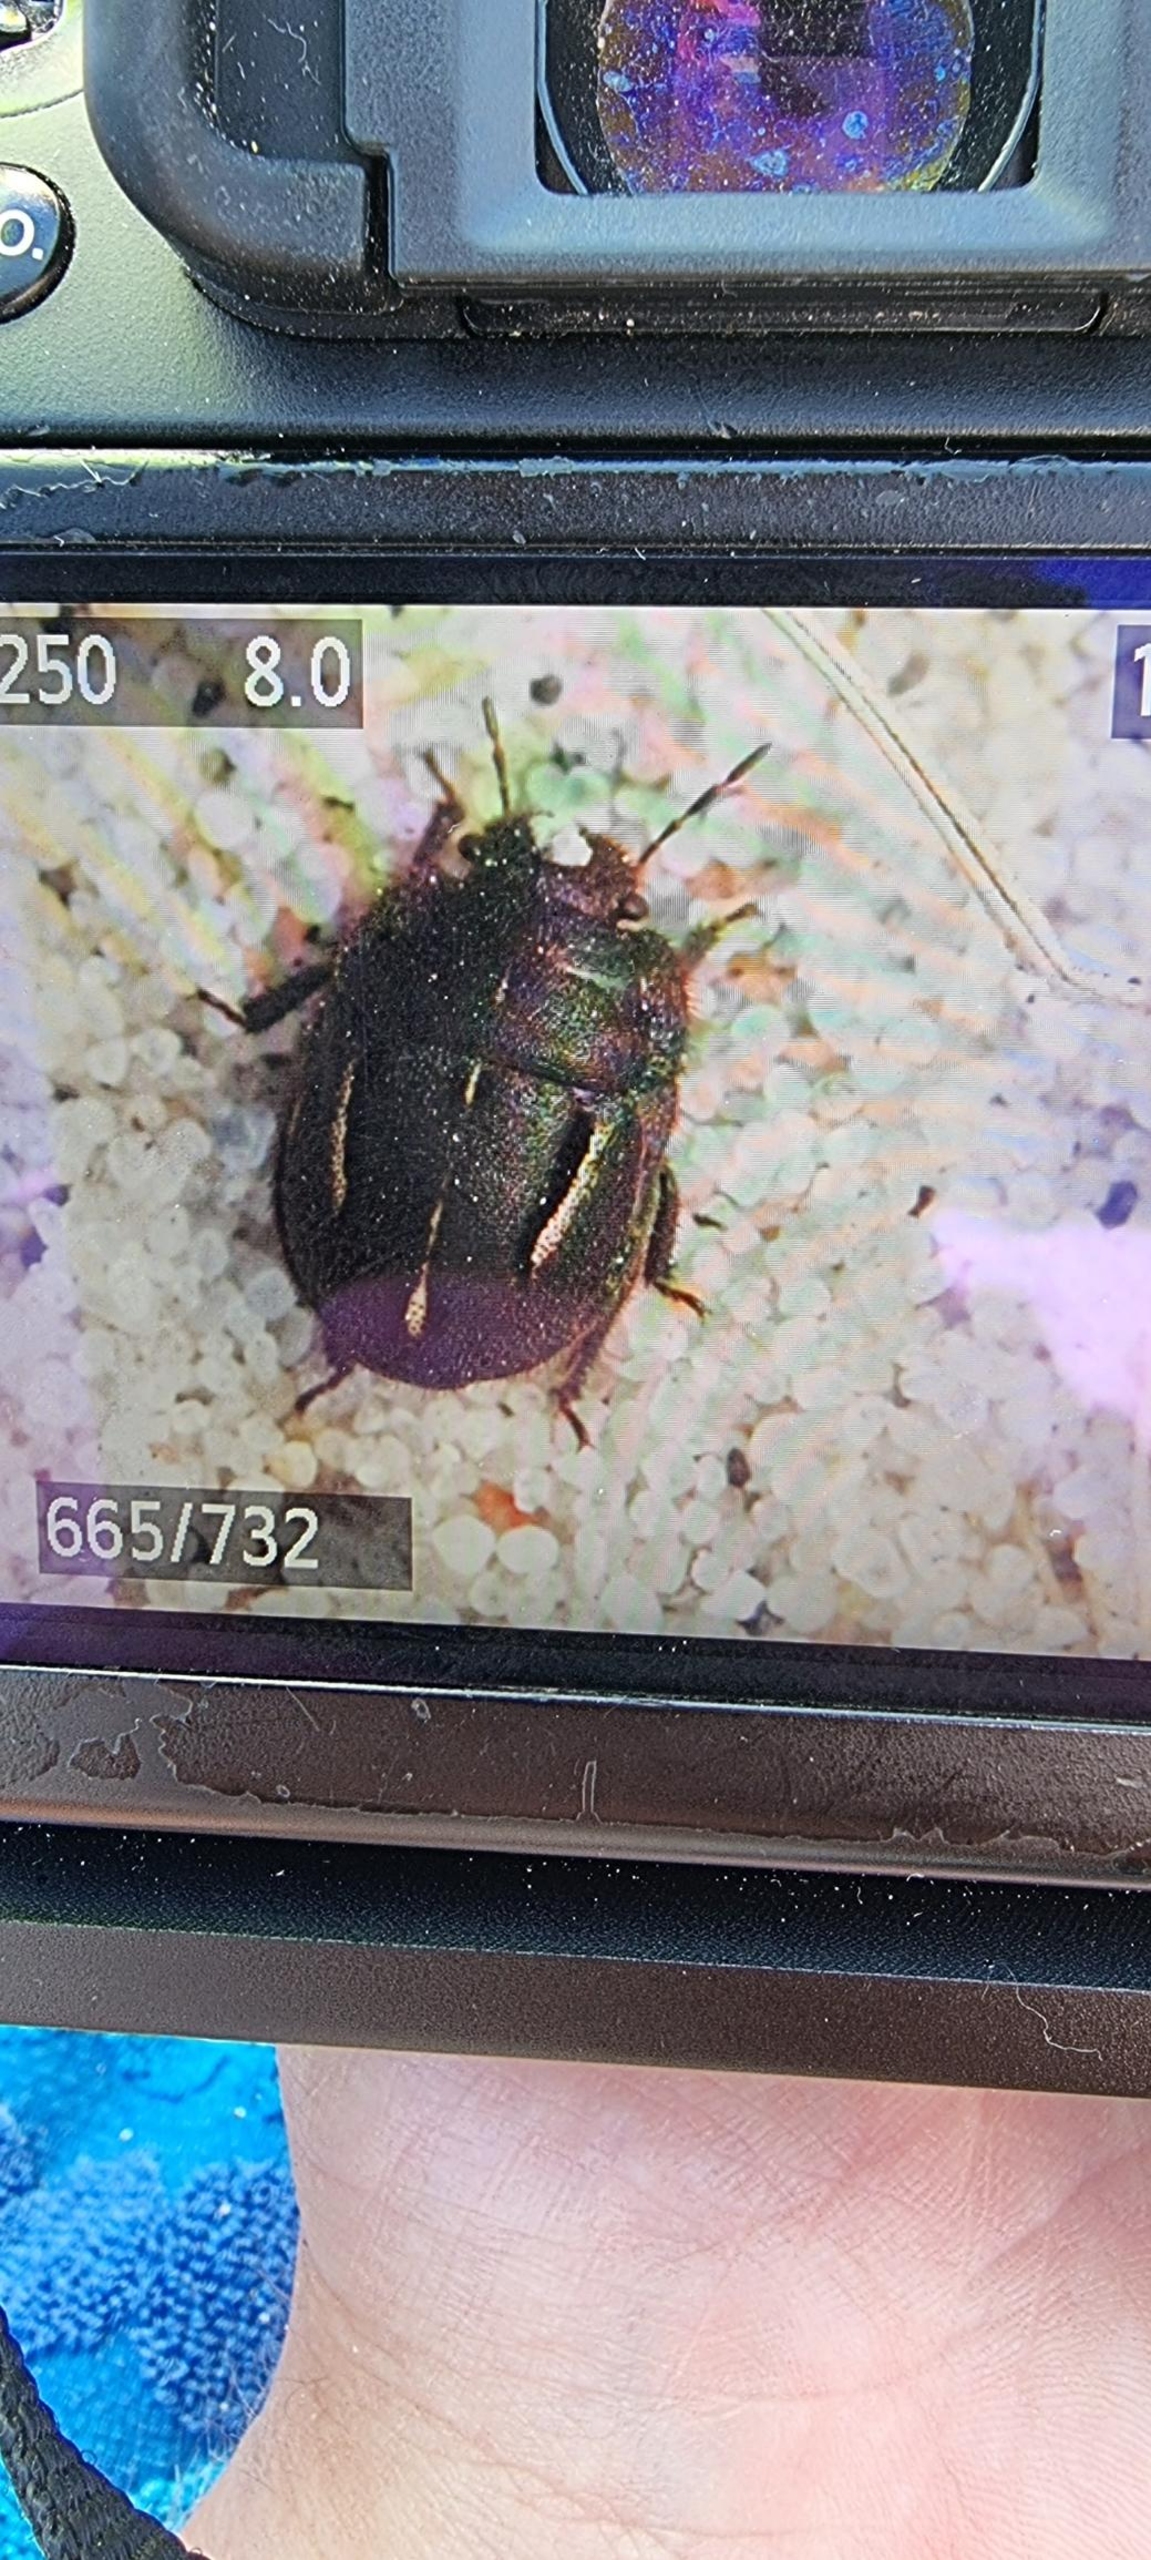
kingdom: Animalia
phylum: Arthropoda
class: Insecta
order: Hemiptera
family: Scutelleridae
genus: Odontoscelis
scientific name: Odontoscelis fuliginosa
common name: Stor sandtæge
